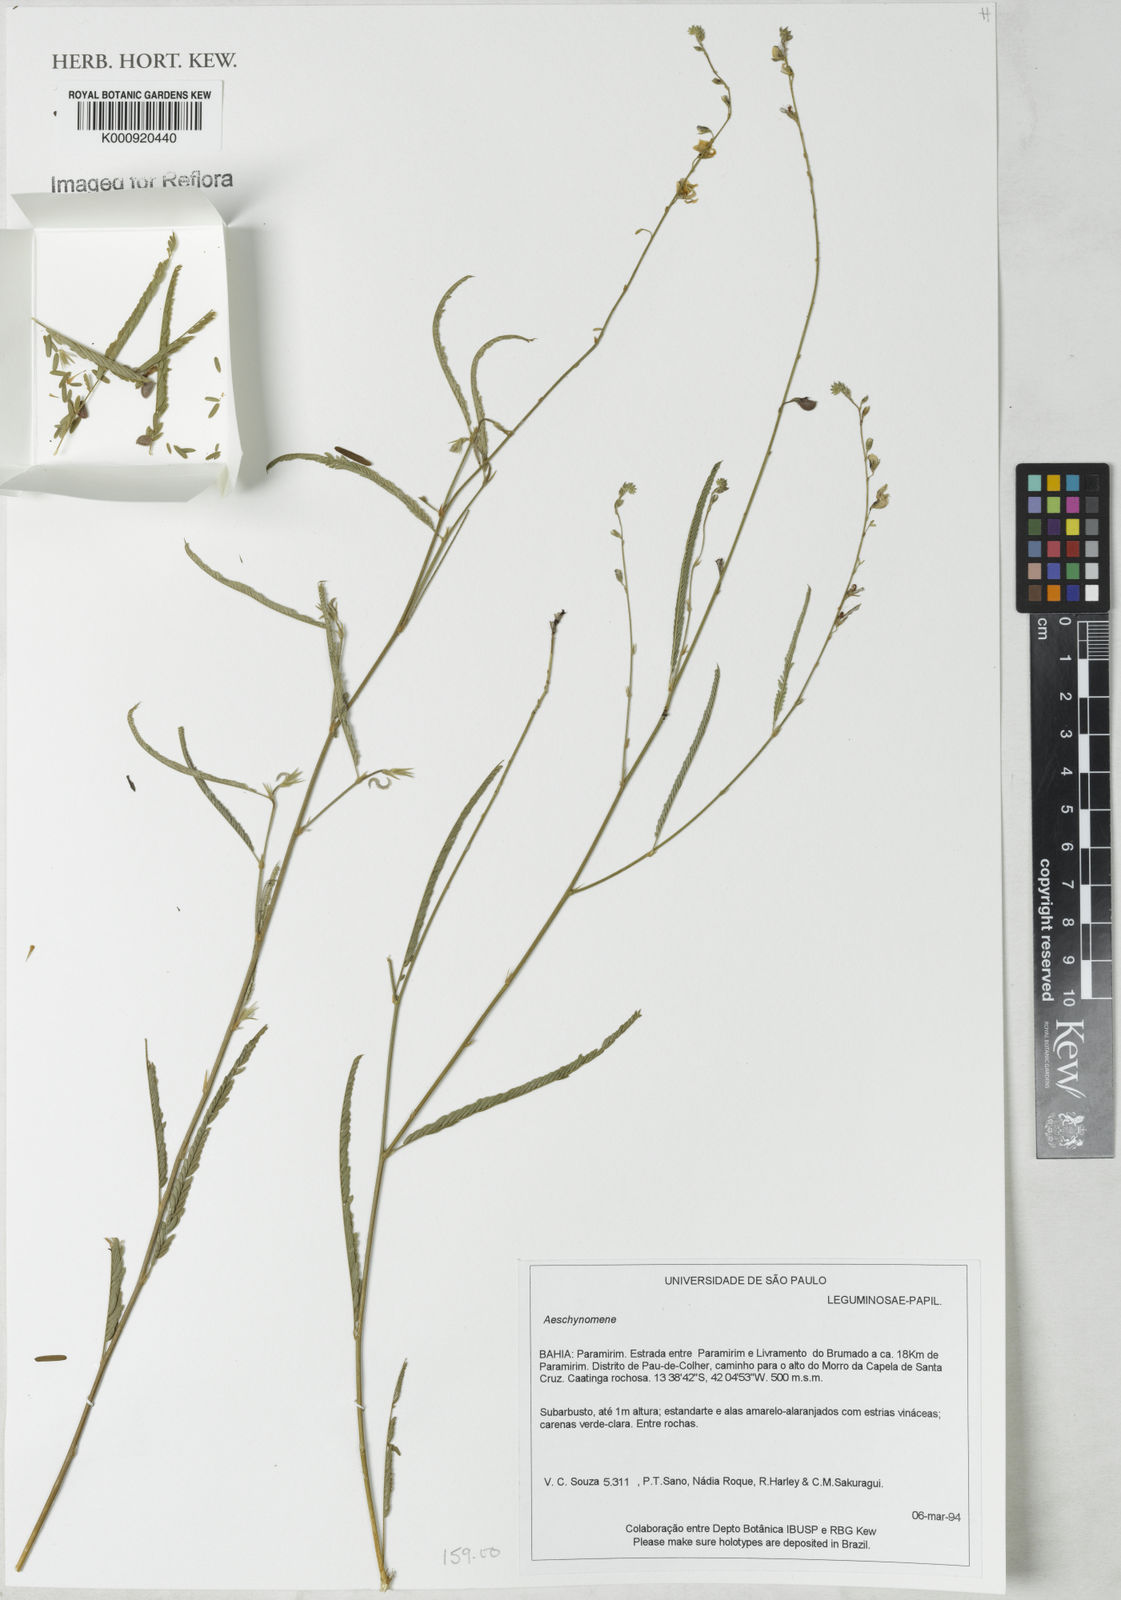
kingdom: Plantae
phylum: Tracheophyta
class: Magnoliopsida
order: Fabales
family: Fabaceae
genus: Aeschynomene
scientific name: Aeschynomene
